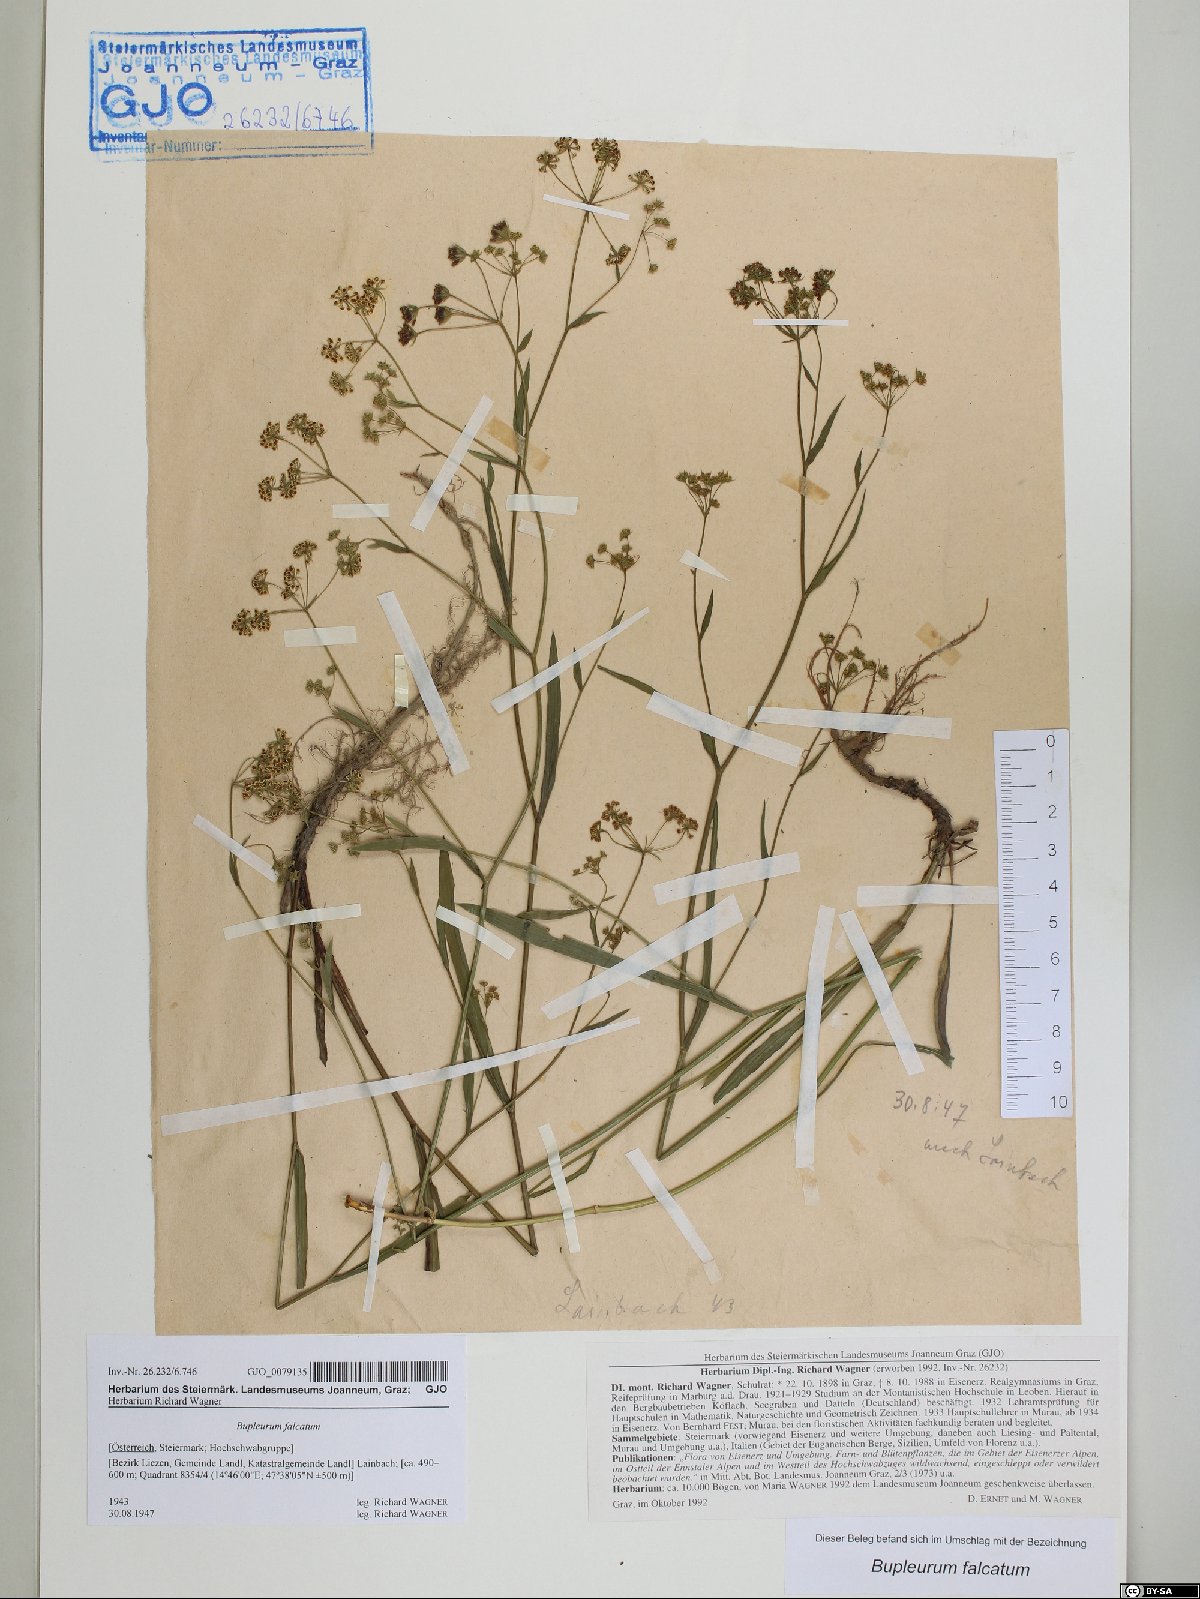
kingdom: Plantae
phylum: Tracheophyta
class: Magnoliopsida
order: Apiales
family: Apiaceae
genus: Bupleurum
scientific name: Bupleurum falcatum
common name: Sickle-leaved hare's-ear
